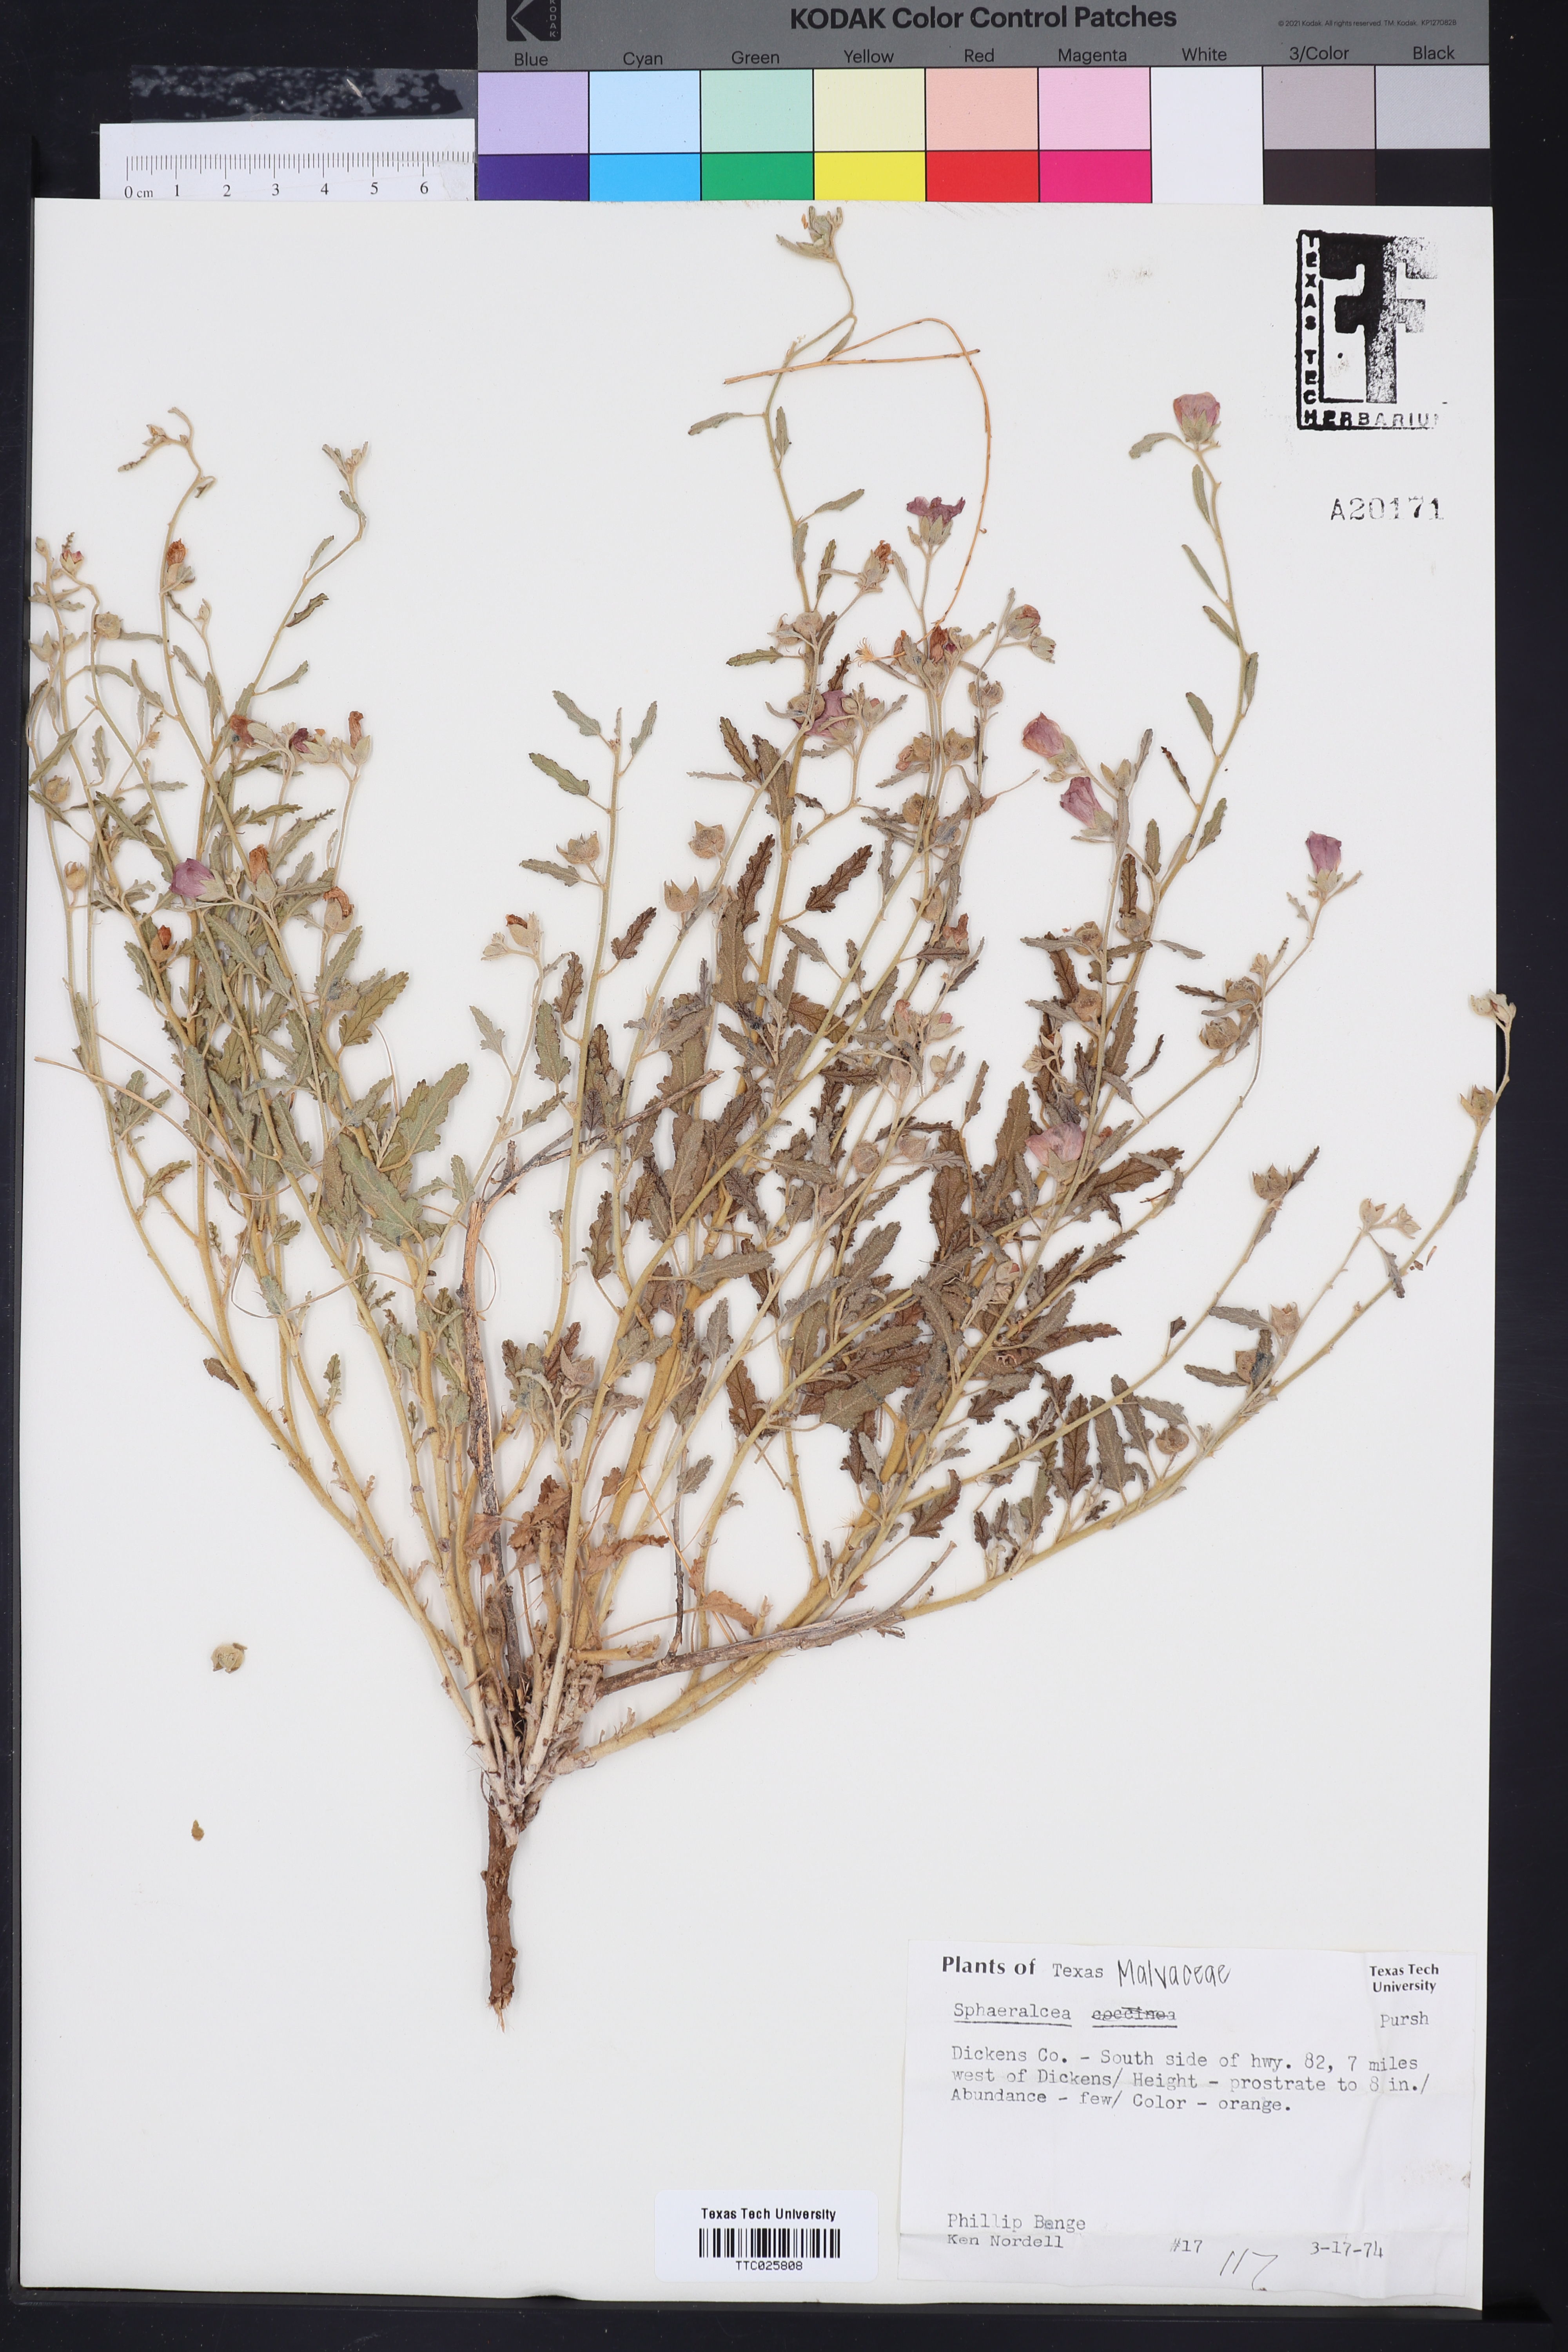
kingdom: Plantae
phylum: Tracheophyta
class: Magnoliopsida
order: Malvales
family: Malvaceae
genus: Sphaeralcea
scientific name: Sphaeralcea coccinea
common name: Moss-rose
